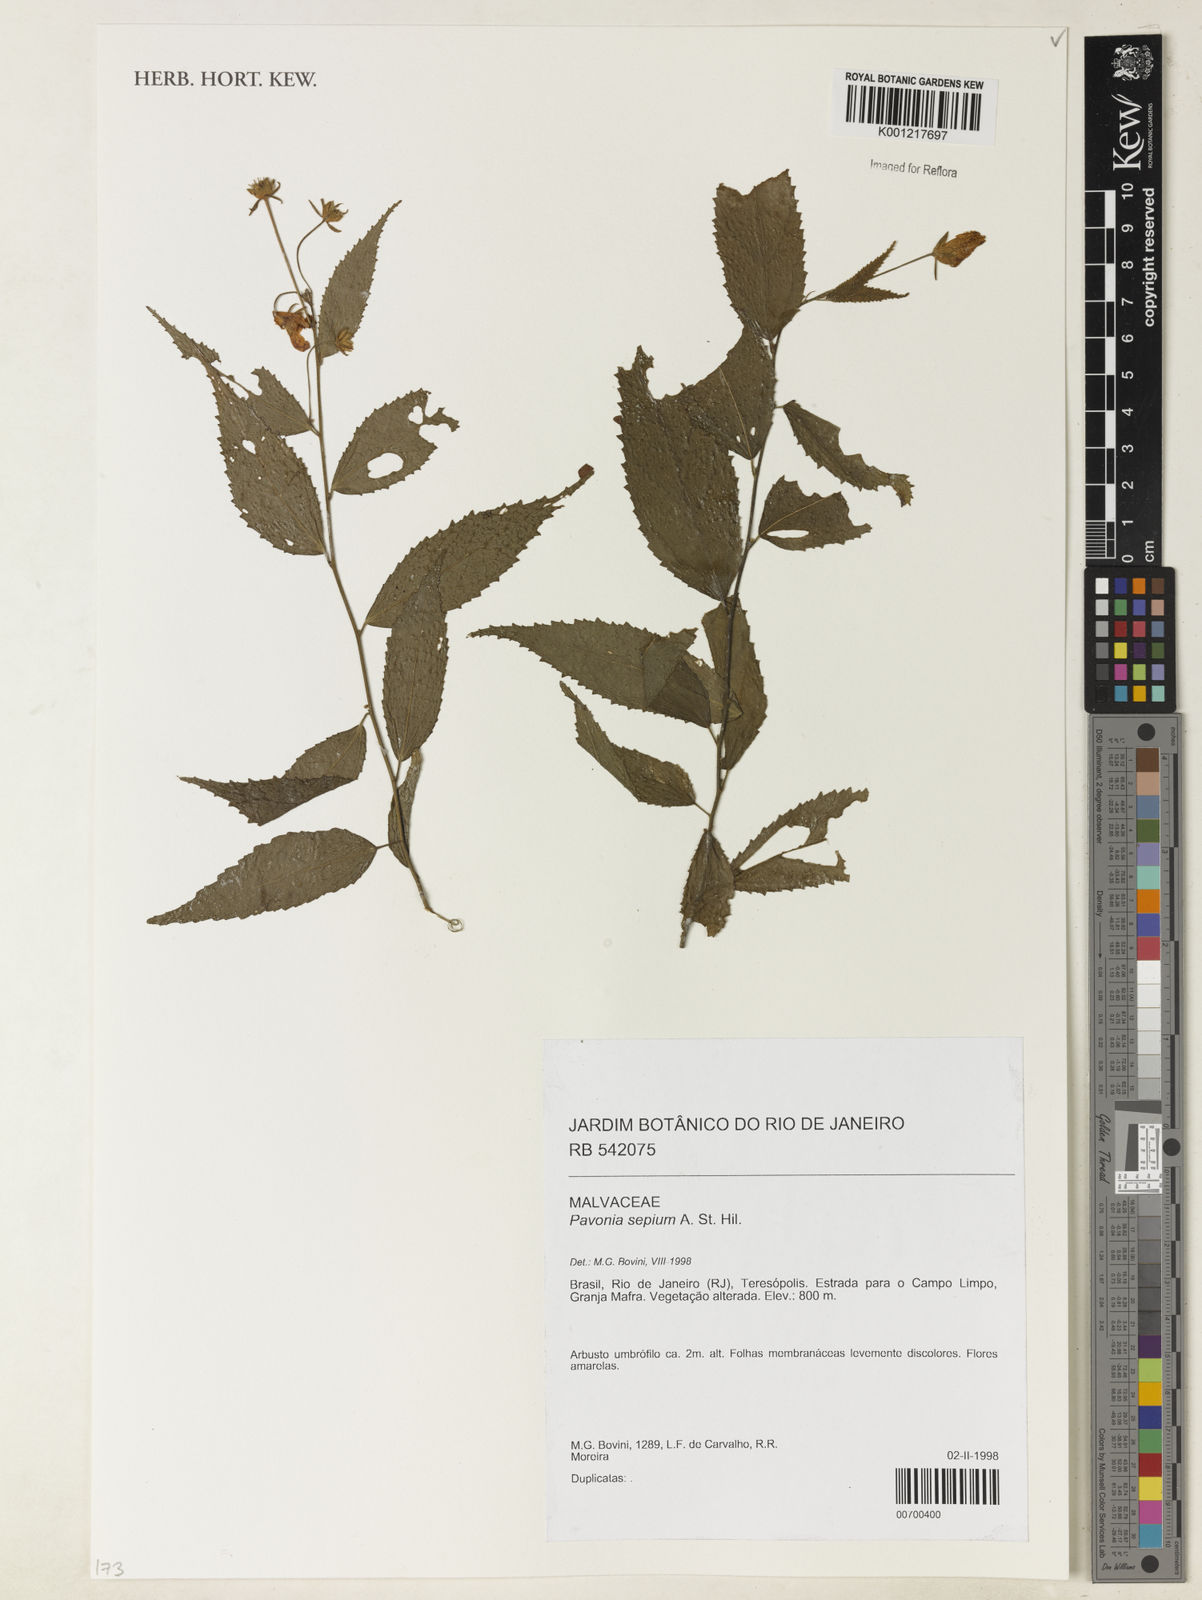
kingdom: Plantae
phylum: Tracheophyta
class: Magnoliopsida
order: Malvales
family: Malvaceae
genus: Pavonia
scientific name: Pavonia sepium
